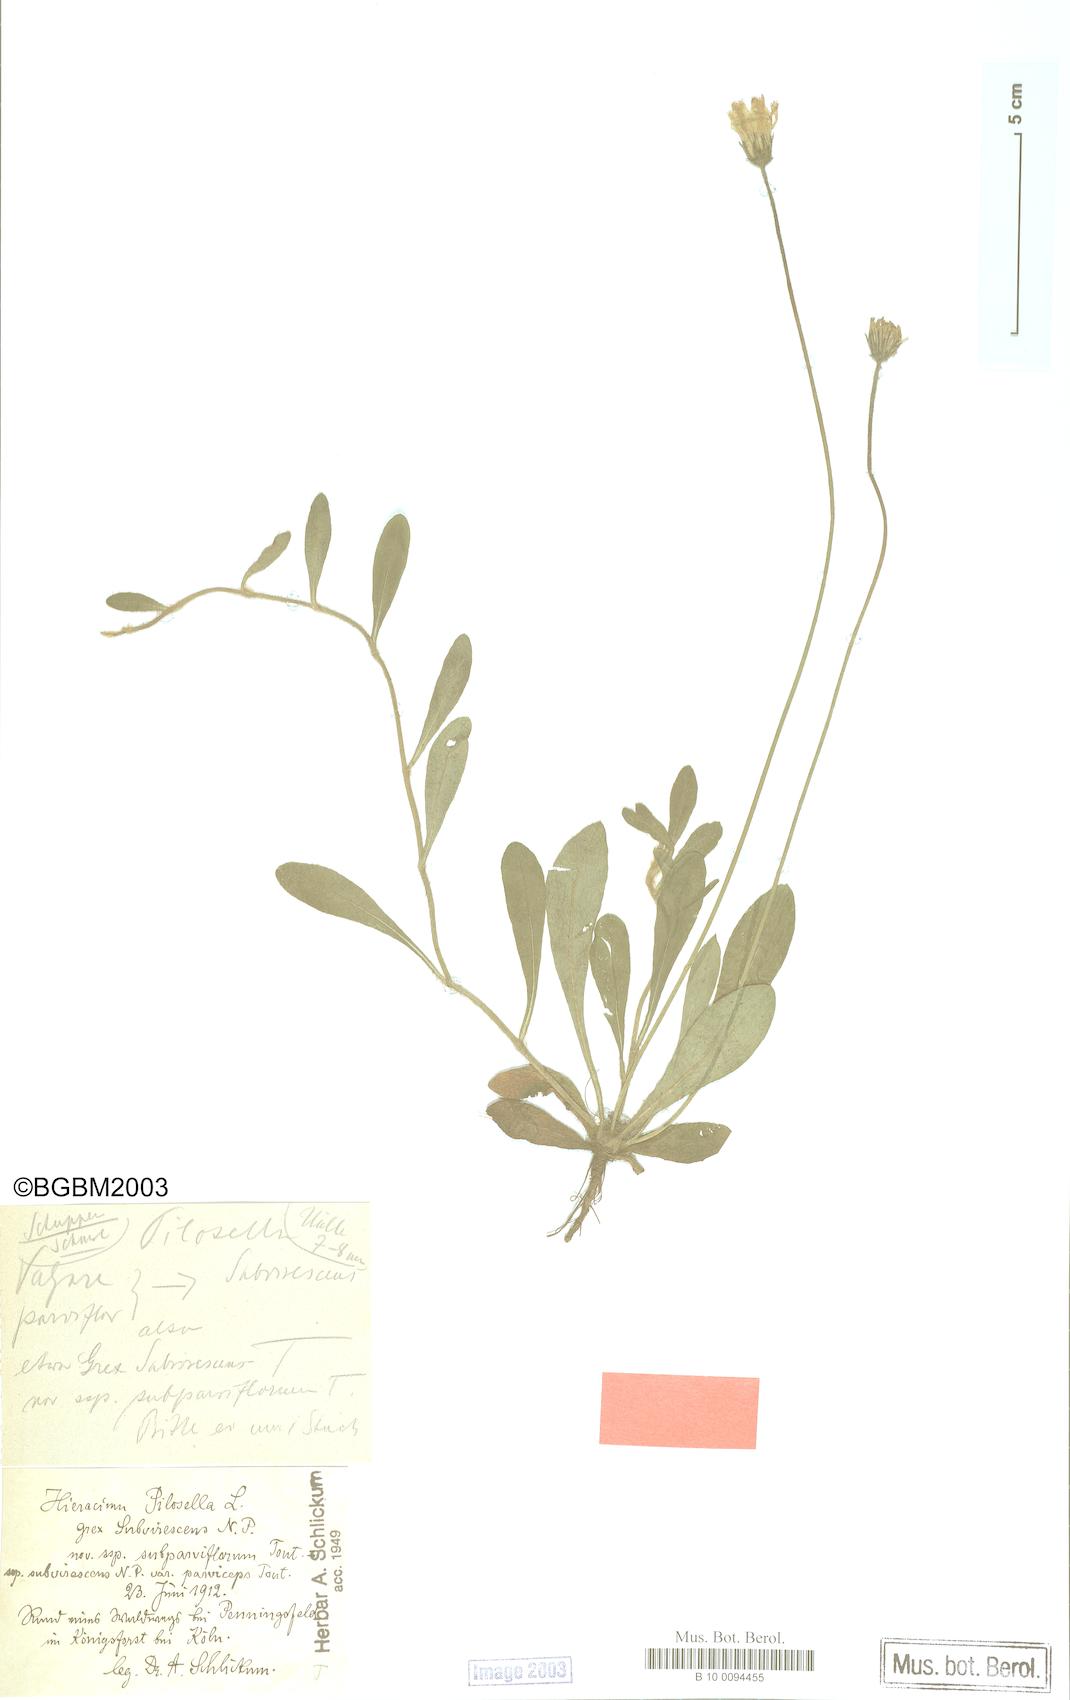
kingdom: Plantae
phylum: Tracheophyta
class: Magnoliopsida
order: Asterales
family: Asteraceae
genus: Pilosella
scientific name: Pilosella officinarum
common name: Mouse-ear hawkweed
